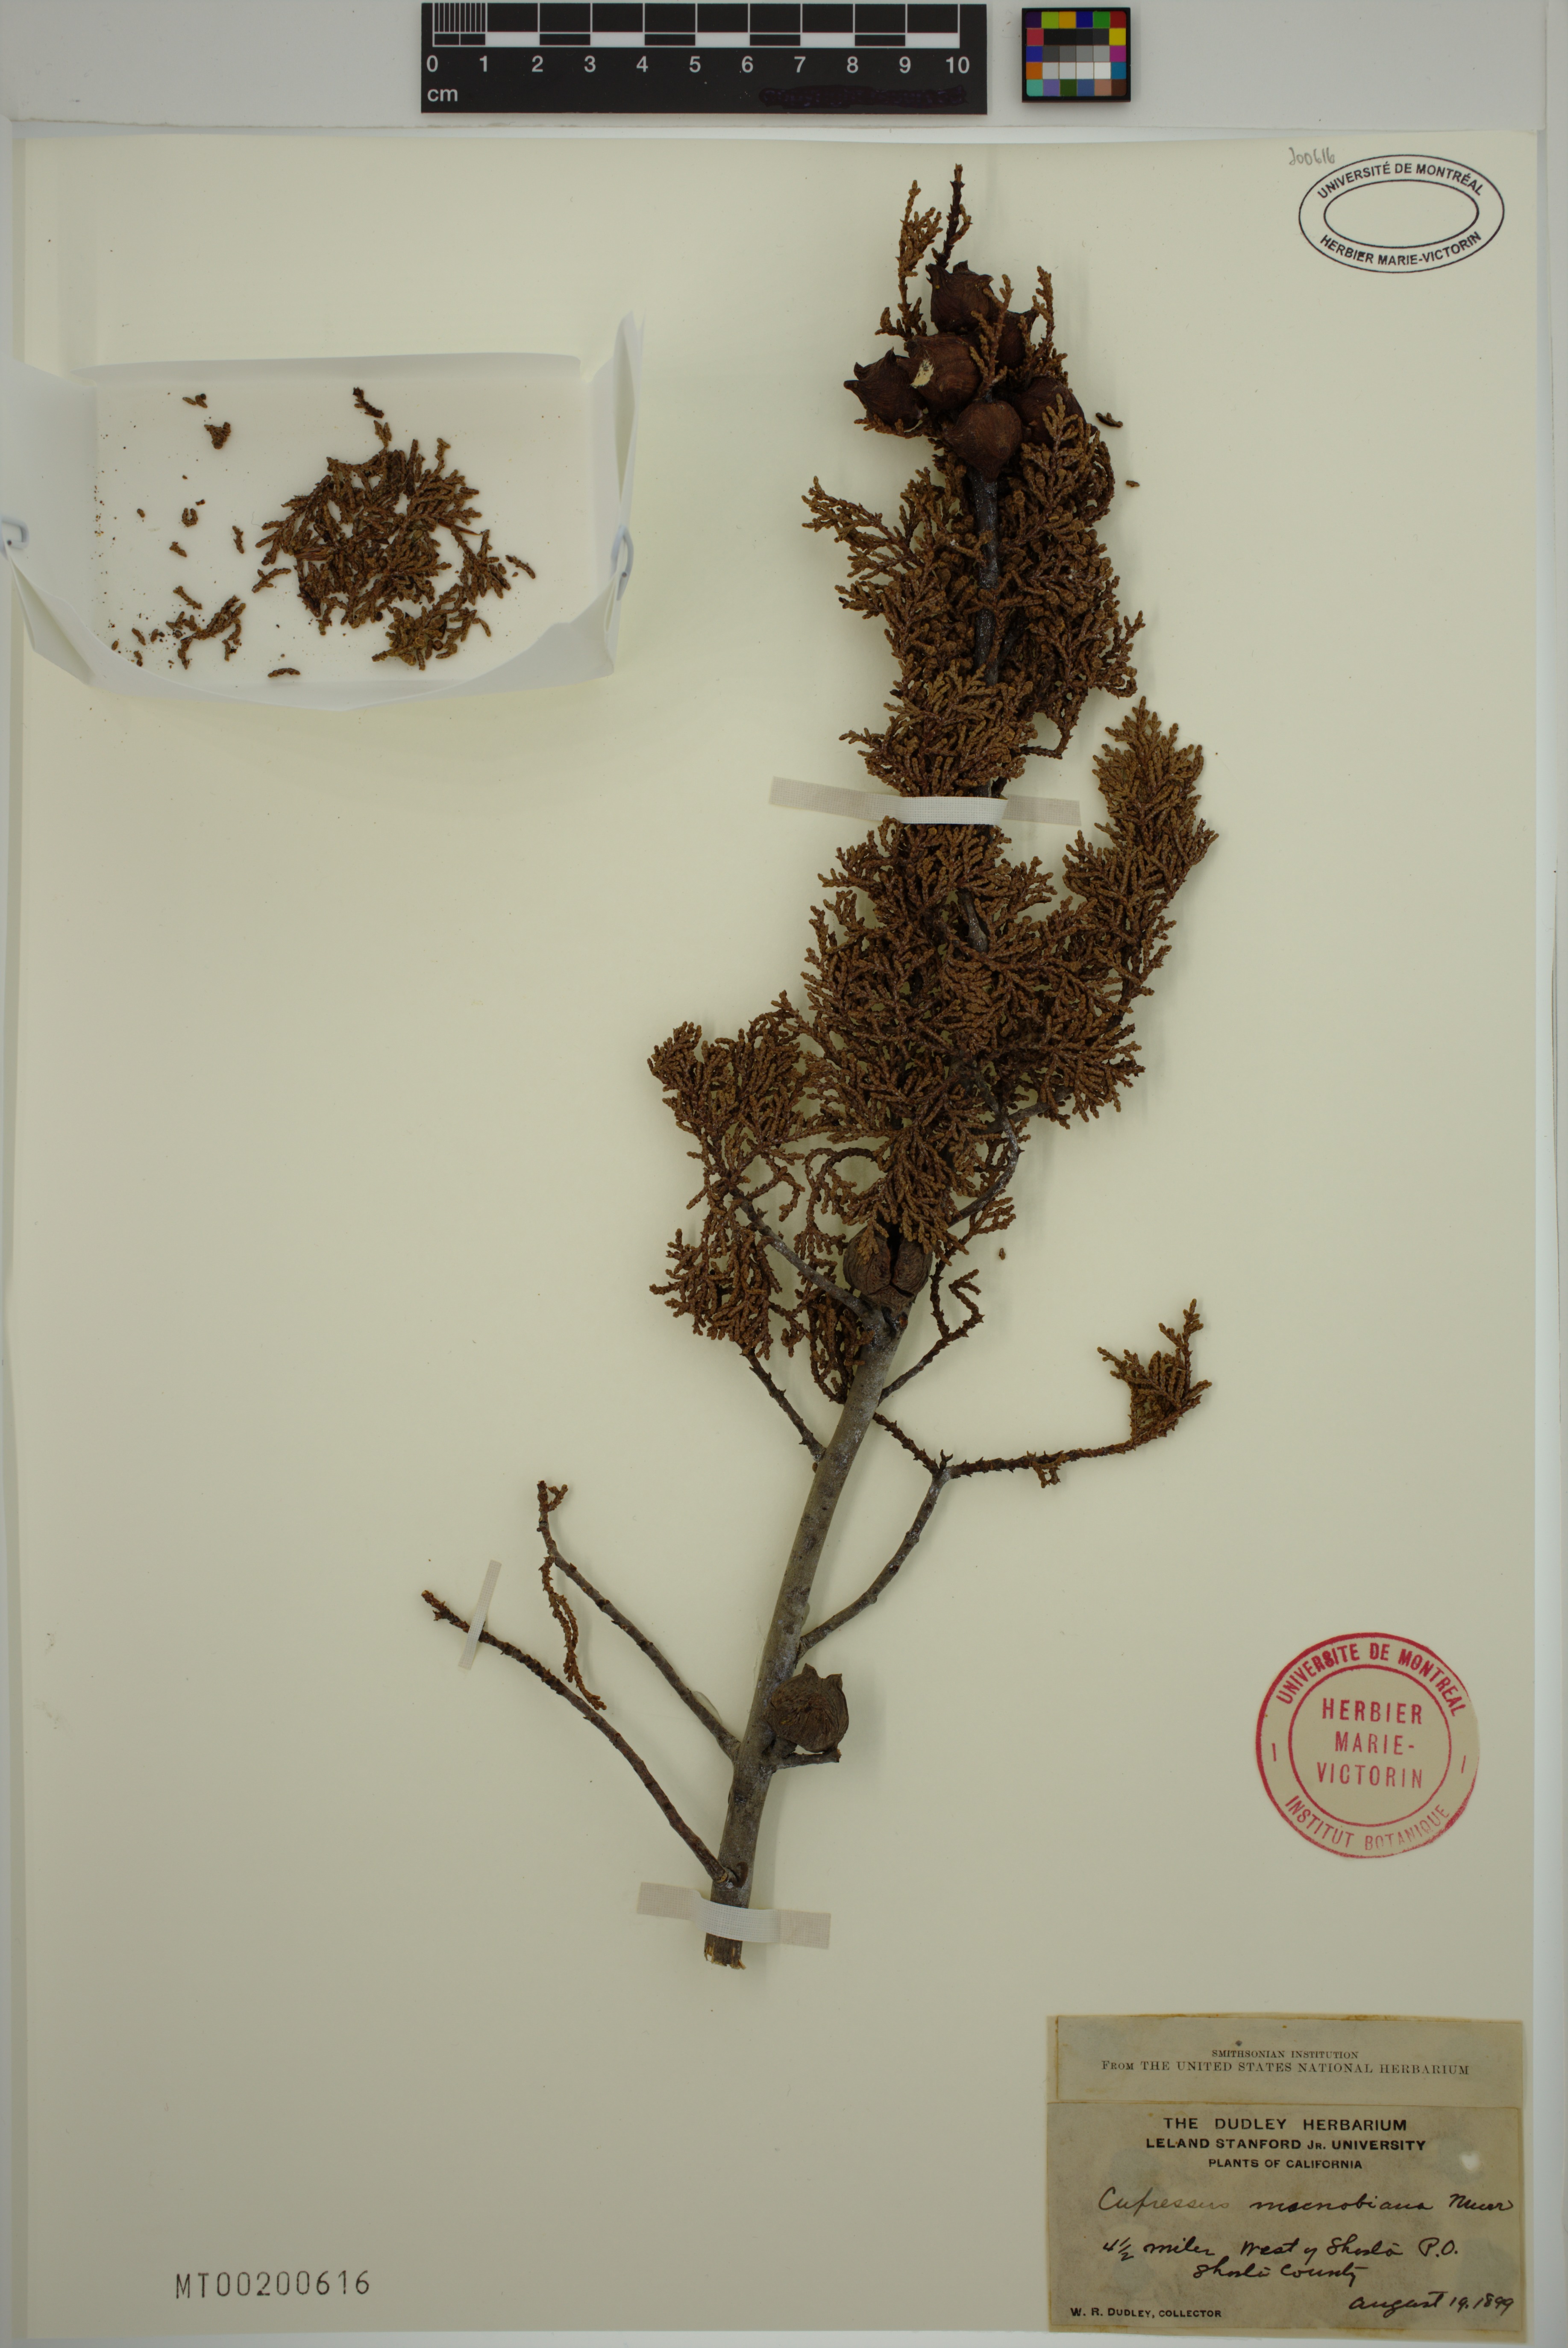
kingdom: Plantae
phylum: Tracheophyta
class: Pinopsida
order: Pinales
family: Cupressaceae
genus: Cupressus
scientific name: Cupressus macnabiana bis
